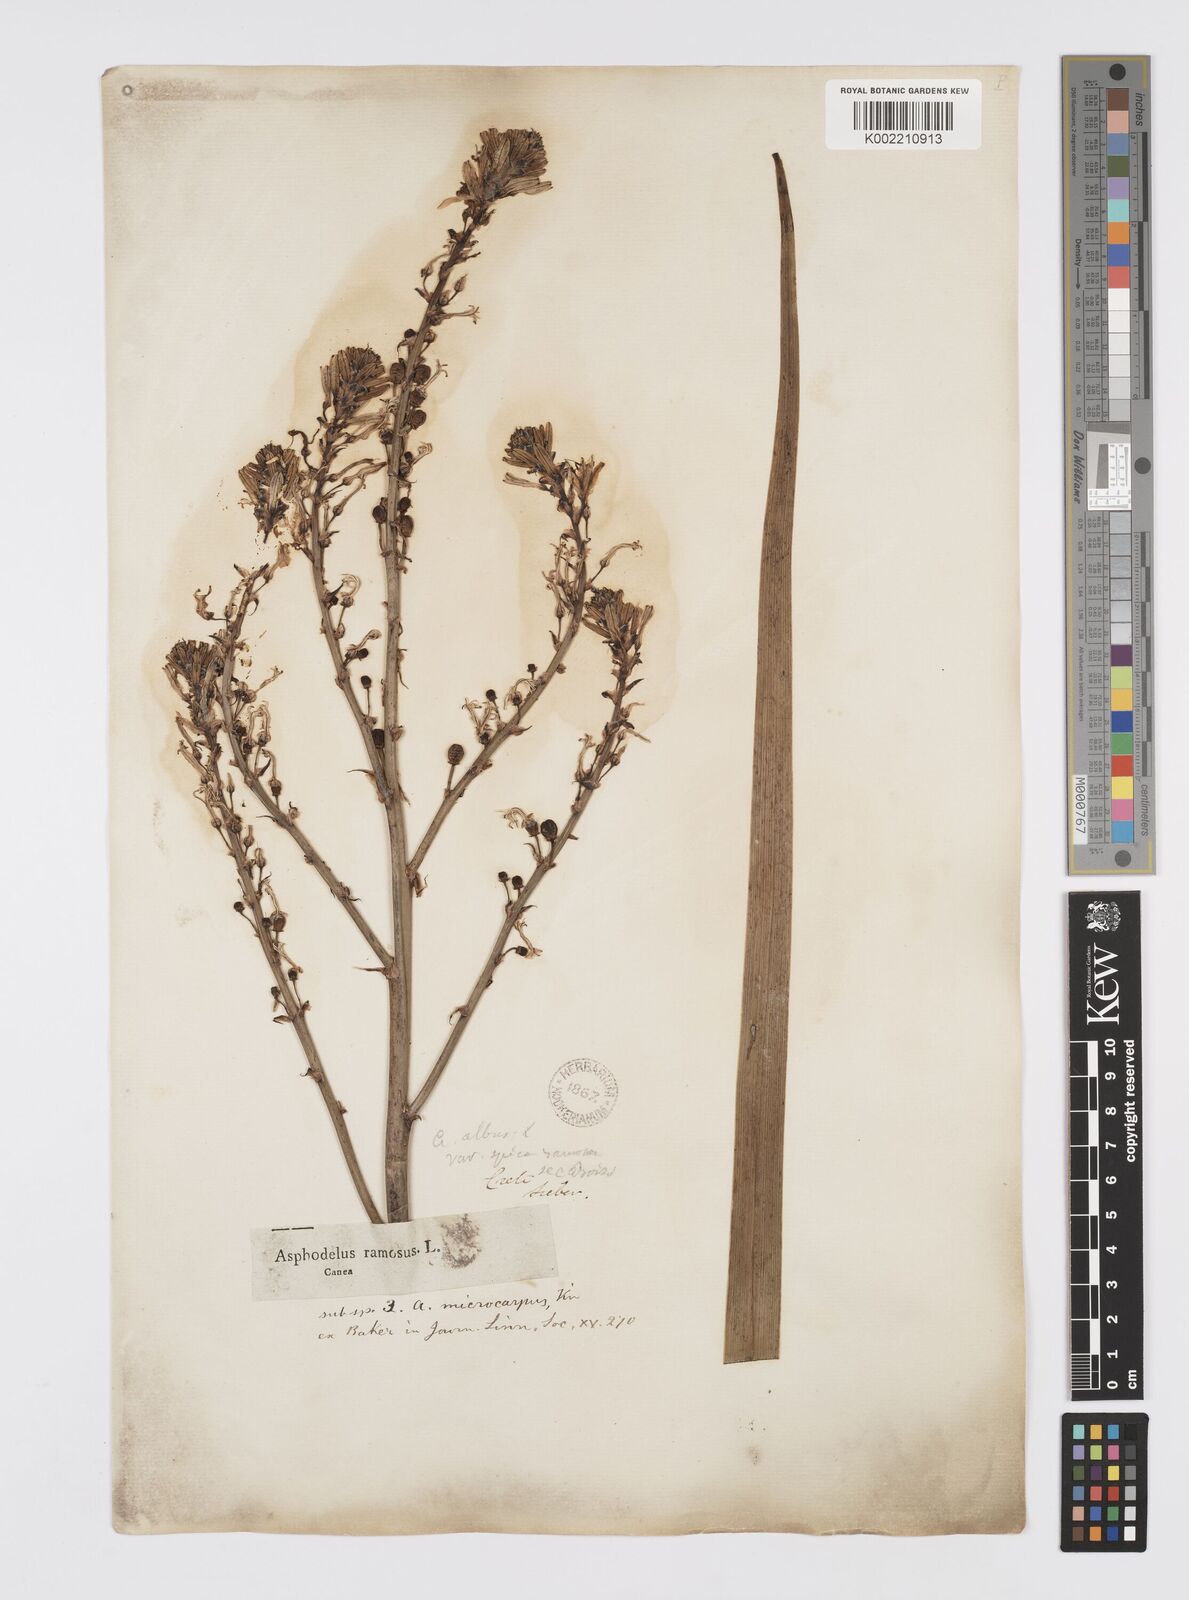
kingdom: Plantae
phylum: Tracheophyta
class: Liliopsida
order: Asparagales
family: Asphodelaceae
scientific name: Asphodelaceae
